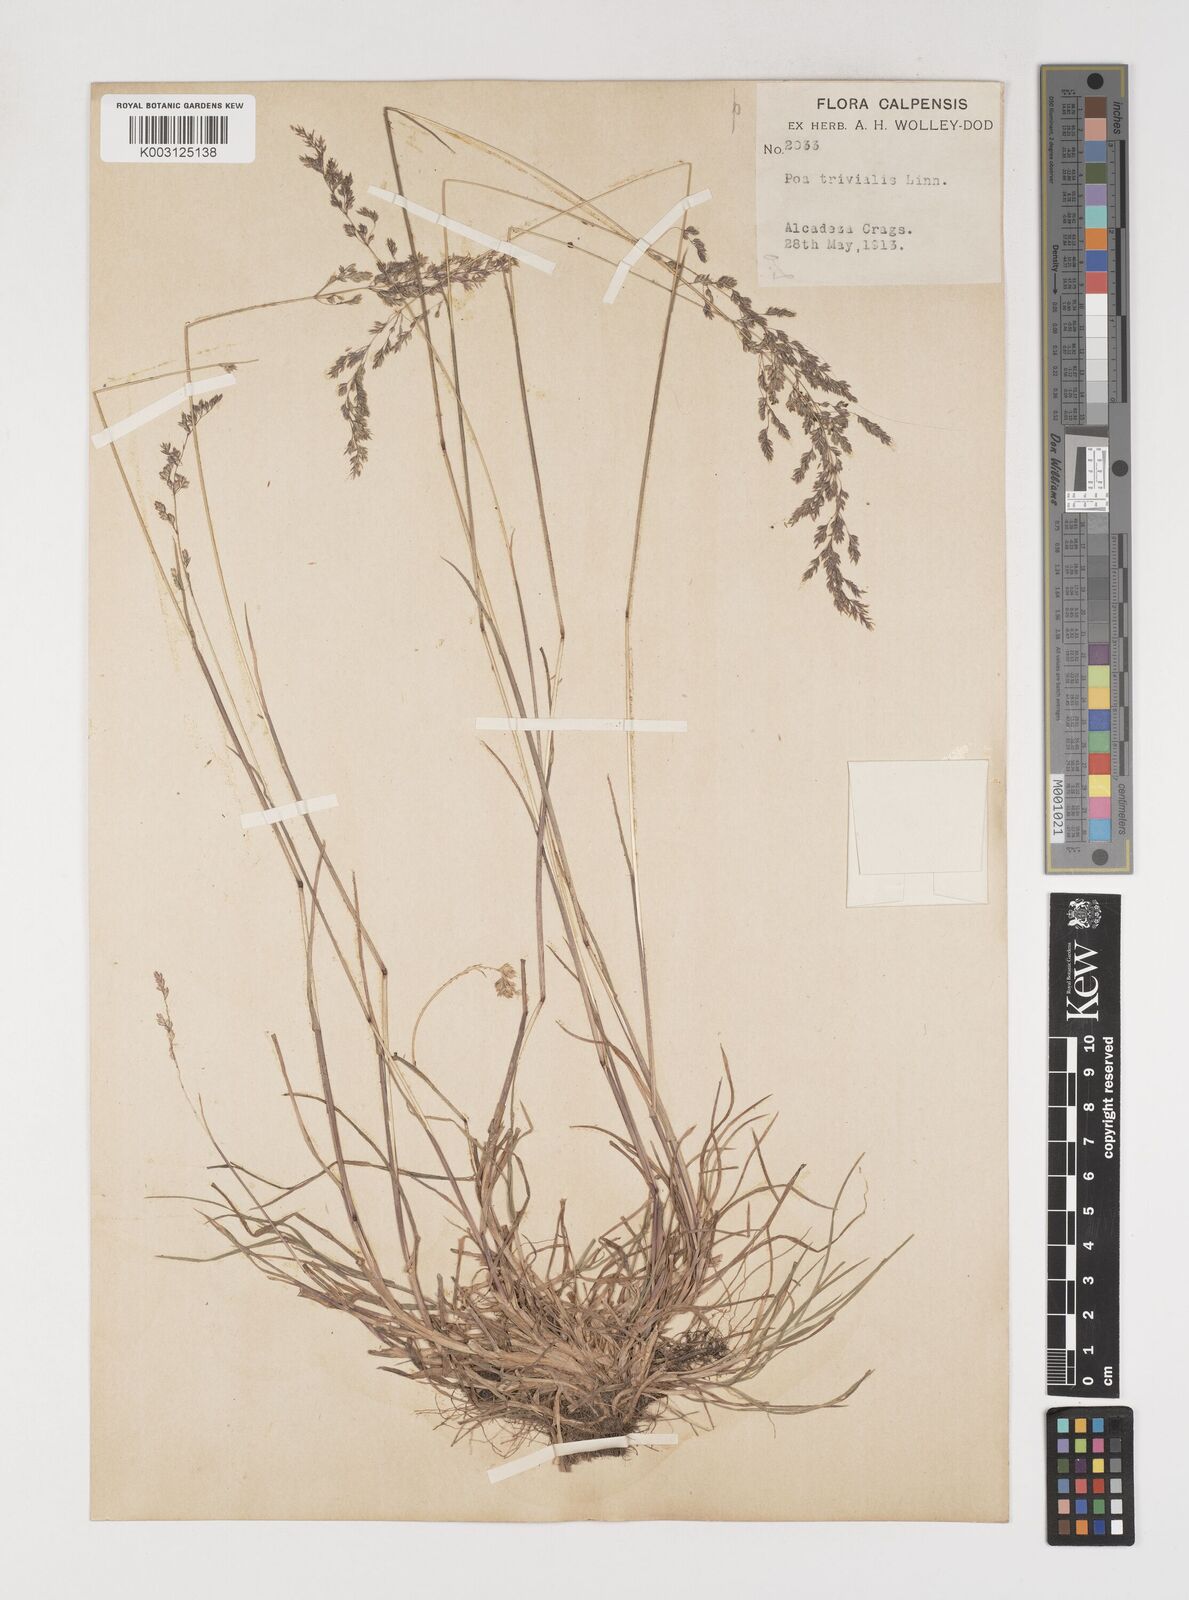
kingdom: Plantae
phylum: Tracheophyta
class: Liliopsida
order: Poales
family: Poaceae
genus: Poa
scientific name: Poa trivialis
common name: Rough bluegrass
